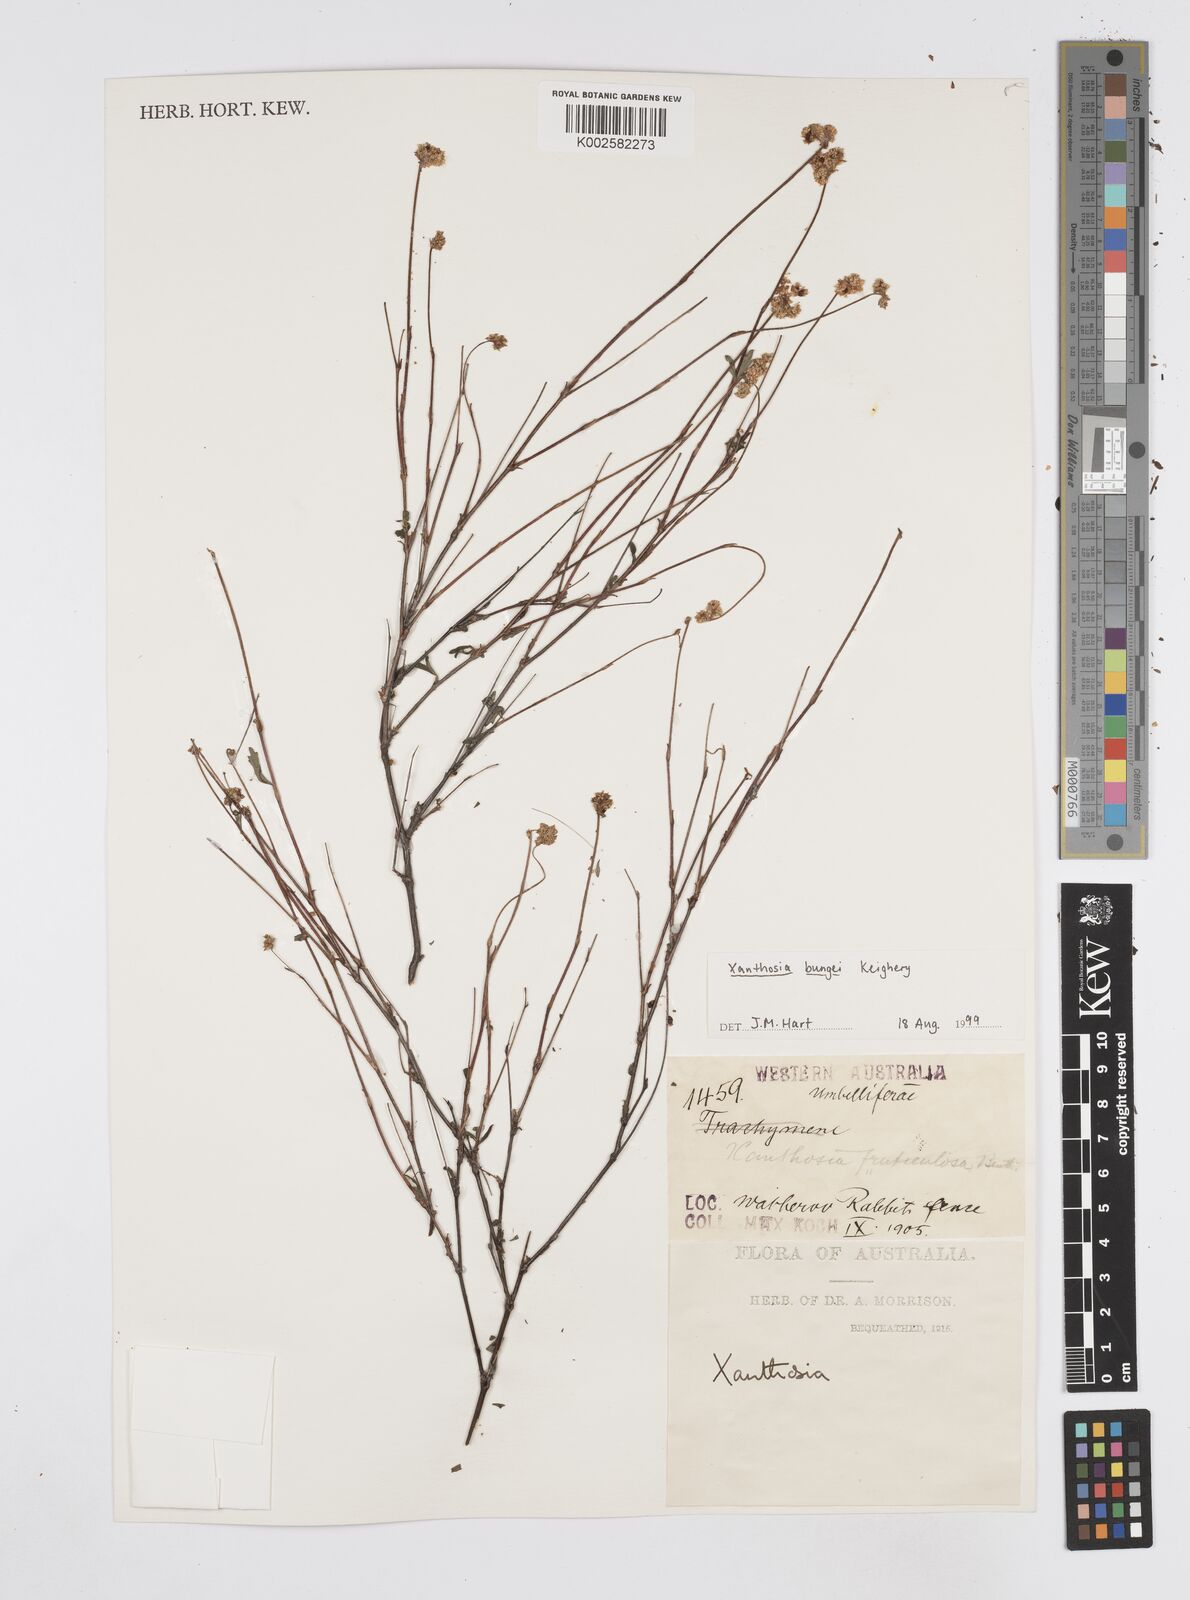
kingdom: Plantae
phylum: Tracheophyta
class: Magnoliopsida
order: Apiales
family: Apiaceae
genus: Xanthosia
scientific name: Xanthosia kochii
